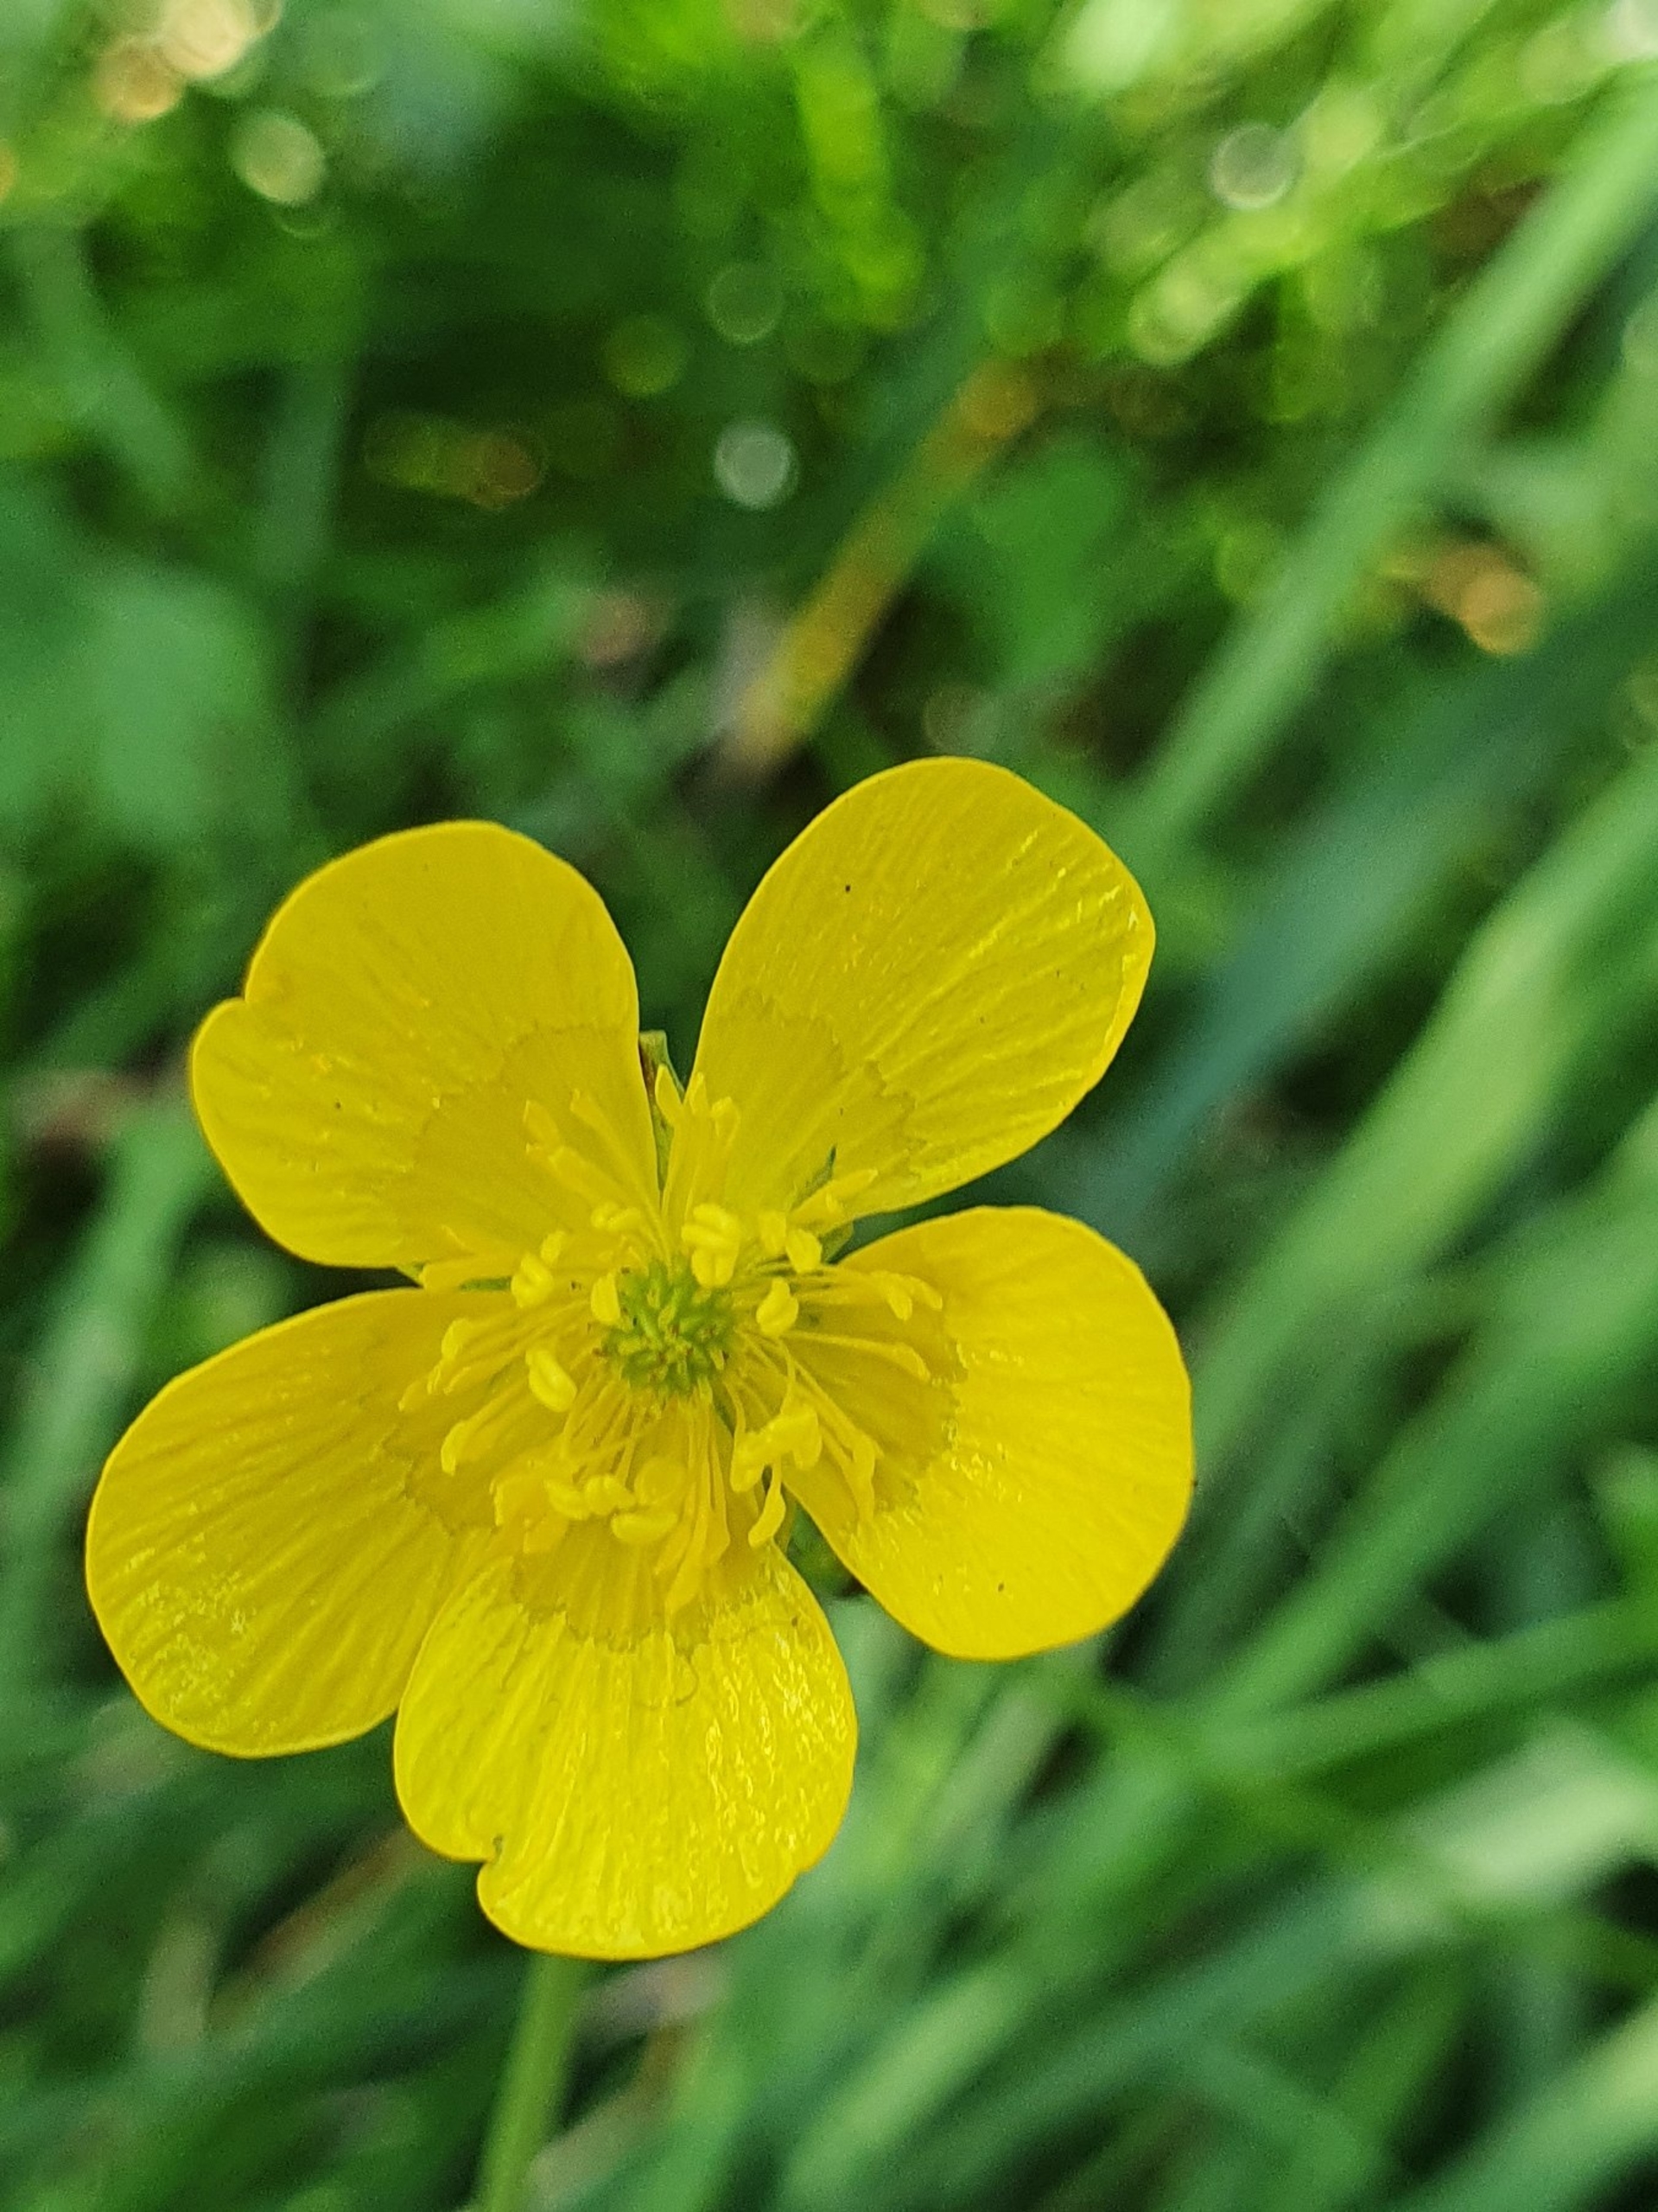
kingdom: Plantae
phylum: Tracheophyta
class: Magnoliopsida
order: Ranunculales
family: Ranunculaceae
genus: Ranunculus
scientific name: Ranunculus
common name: Ranunkelslægten
